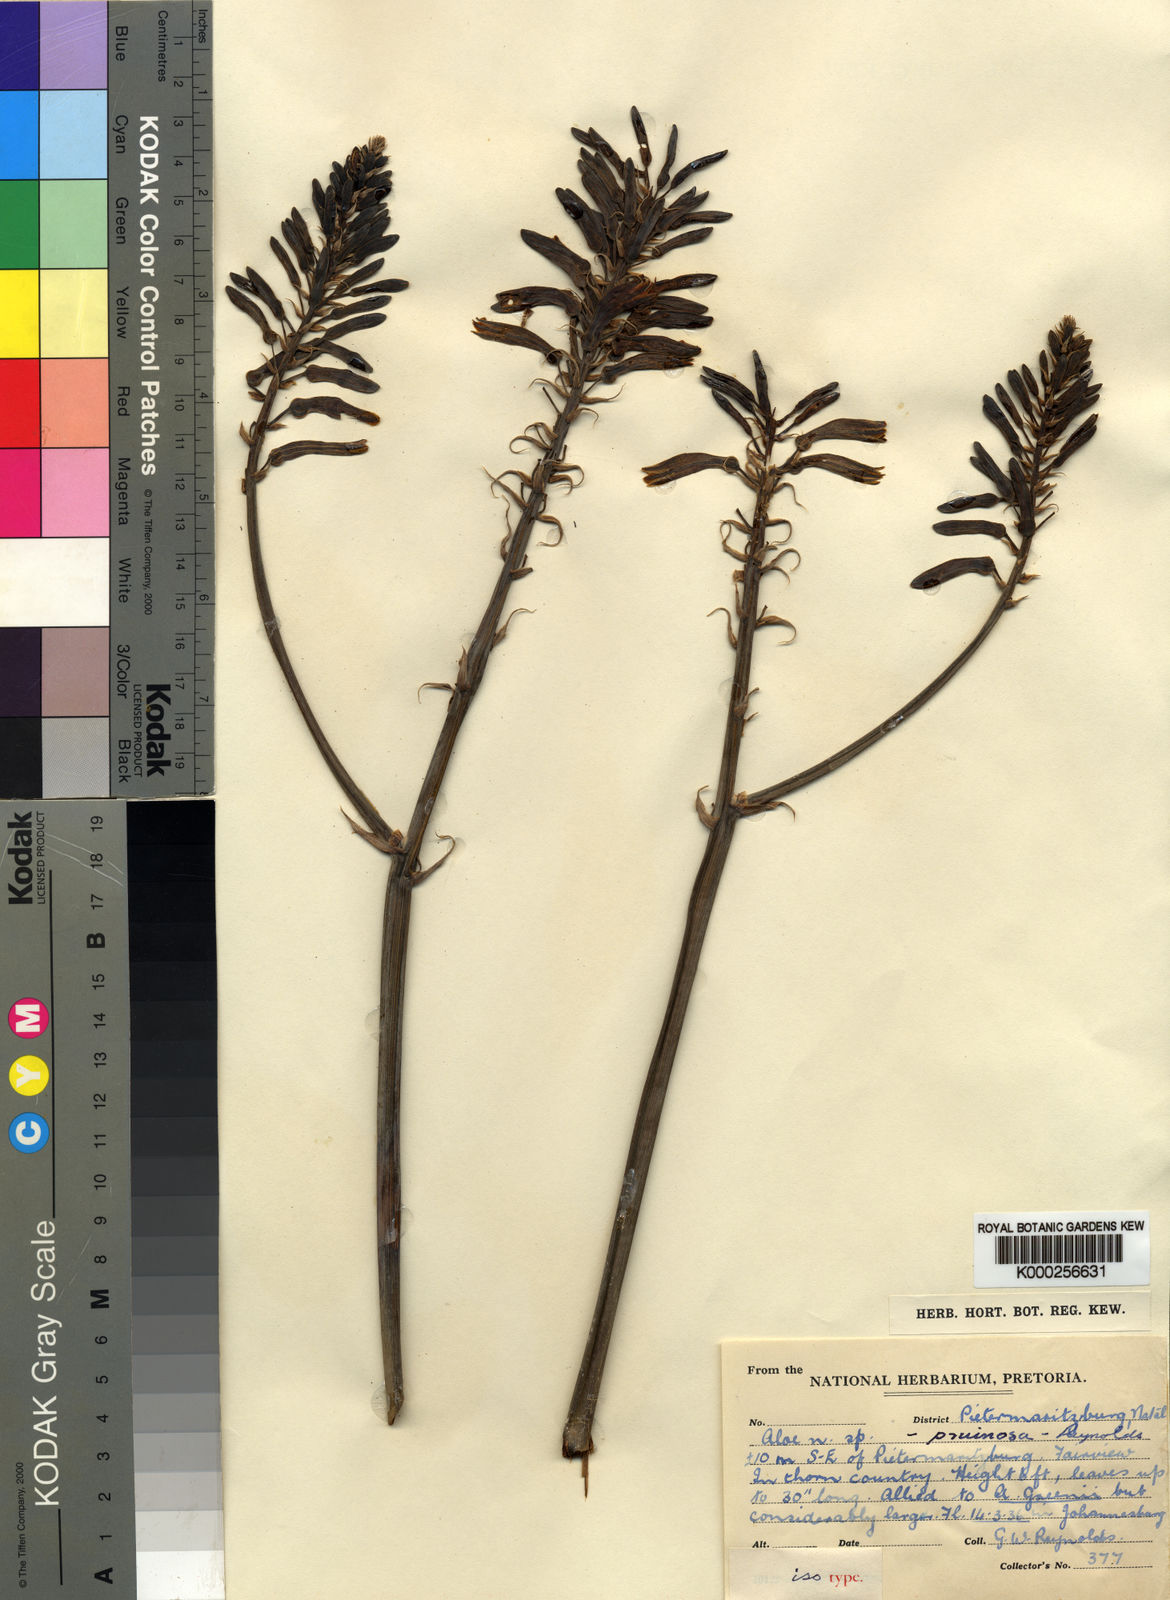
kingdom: Plantae
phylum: Tracheophyta
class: Liliopsida
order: Asparagales
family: Asphodelaceae
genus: Aloe
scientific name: Aloe pruinosa
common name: Powder aloe
